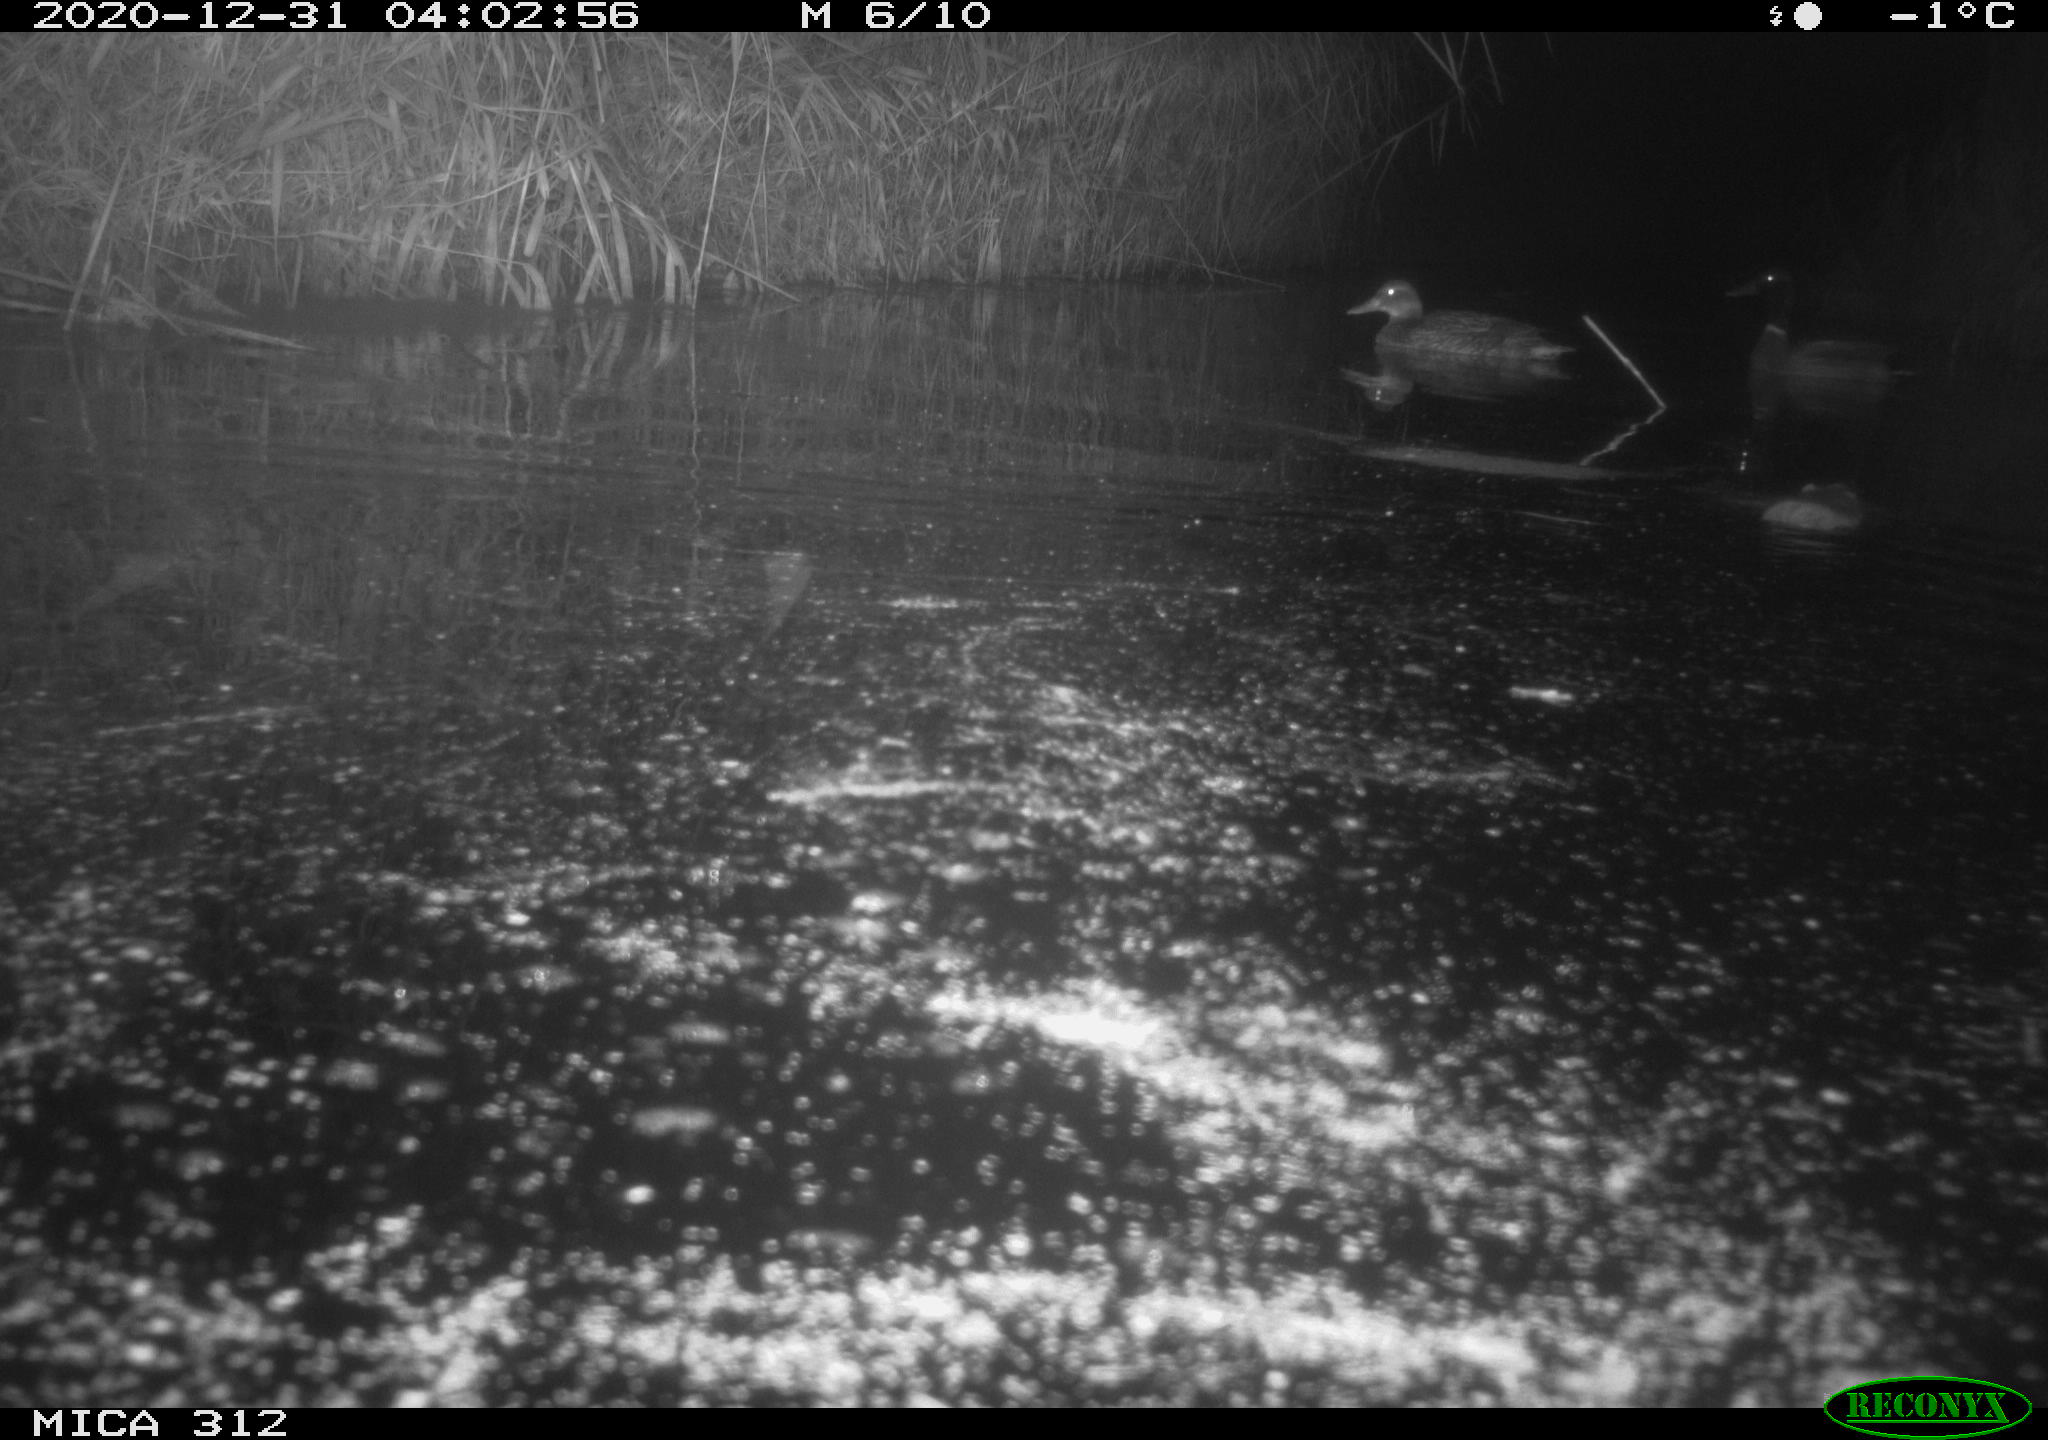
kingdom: Animalia
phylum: Chordata
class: Aves
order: Anseriformes
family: Anatidae
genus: Anas
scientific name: Anas platyrhynchos
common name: Mallard
